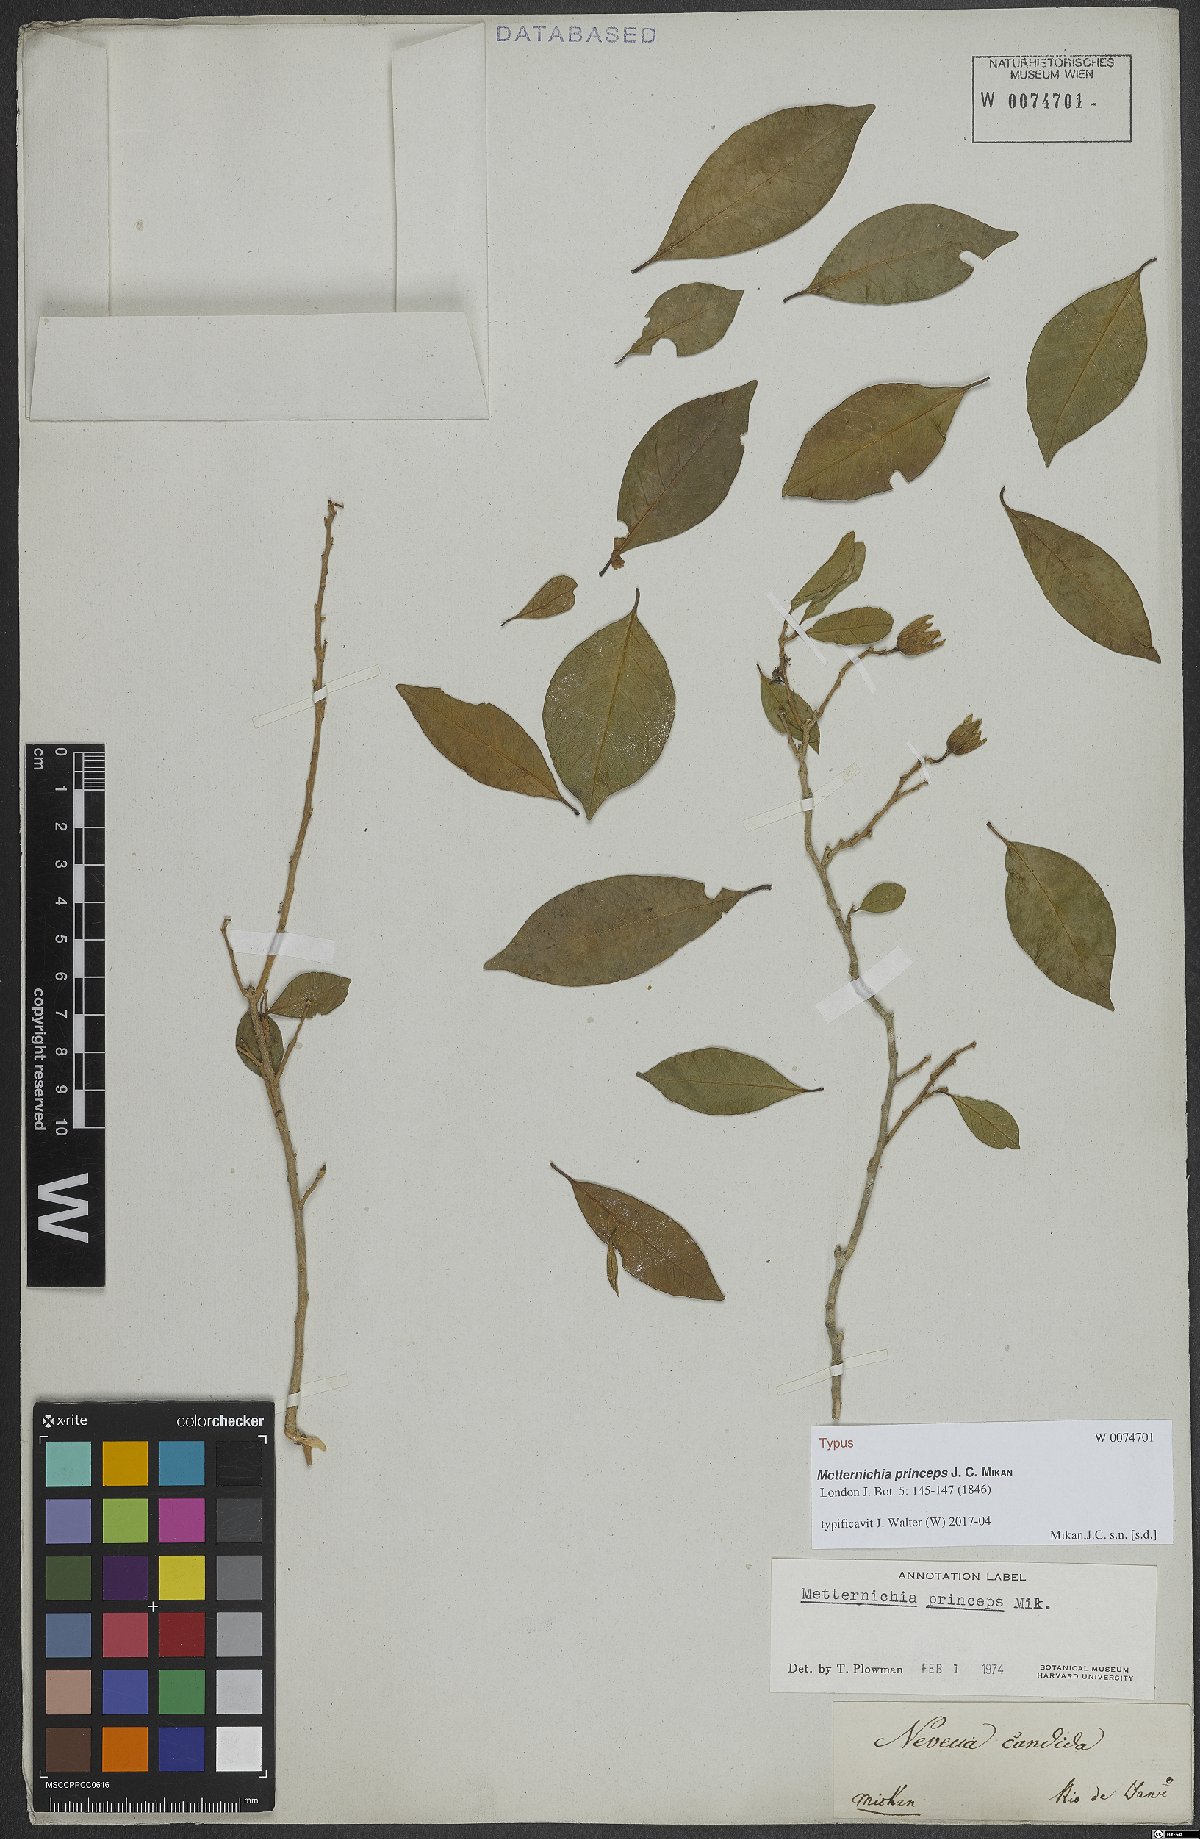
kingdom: Plantae
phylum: Tracheophyta
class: Magnoliopsida
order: Solanales
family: Solanaceae
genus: Metternichia
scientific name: Metternichia principis
